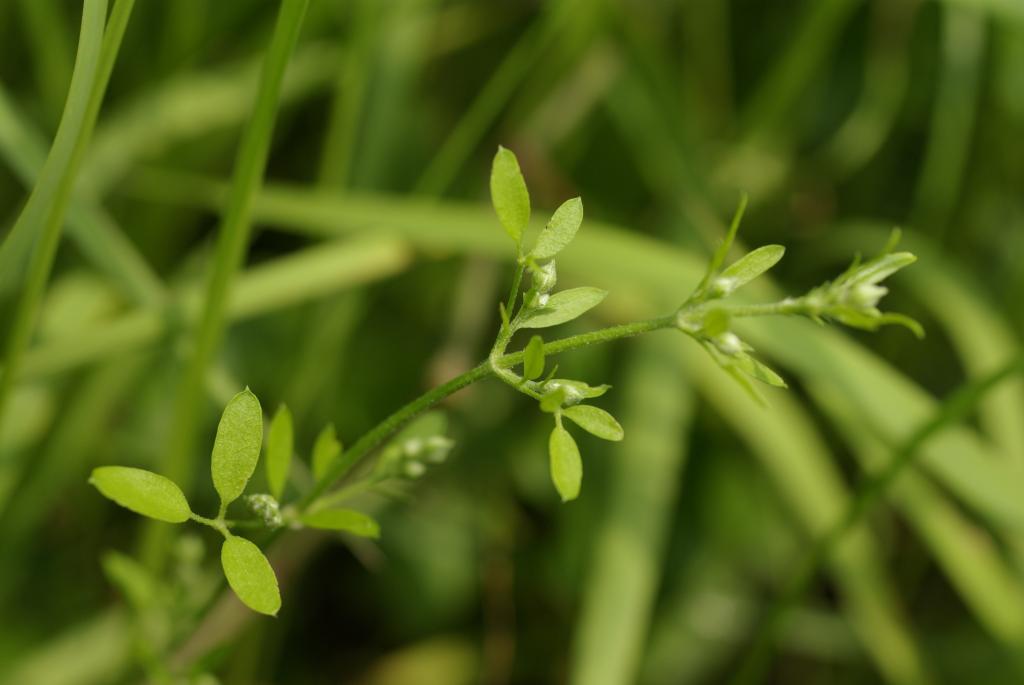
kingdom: Plantae
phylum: Tracheophyta
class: Magnoliopsida
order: Ranunculales
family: Ranunculaceae
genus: Clematis
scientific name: Clematis chinensis
